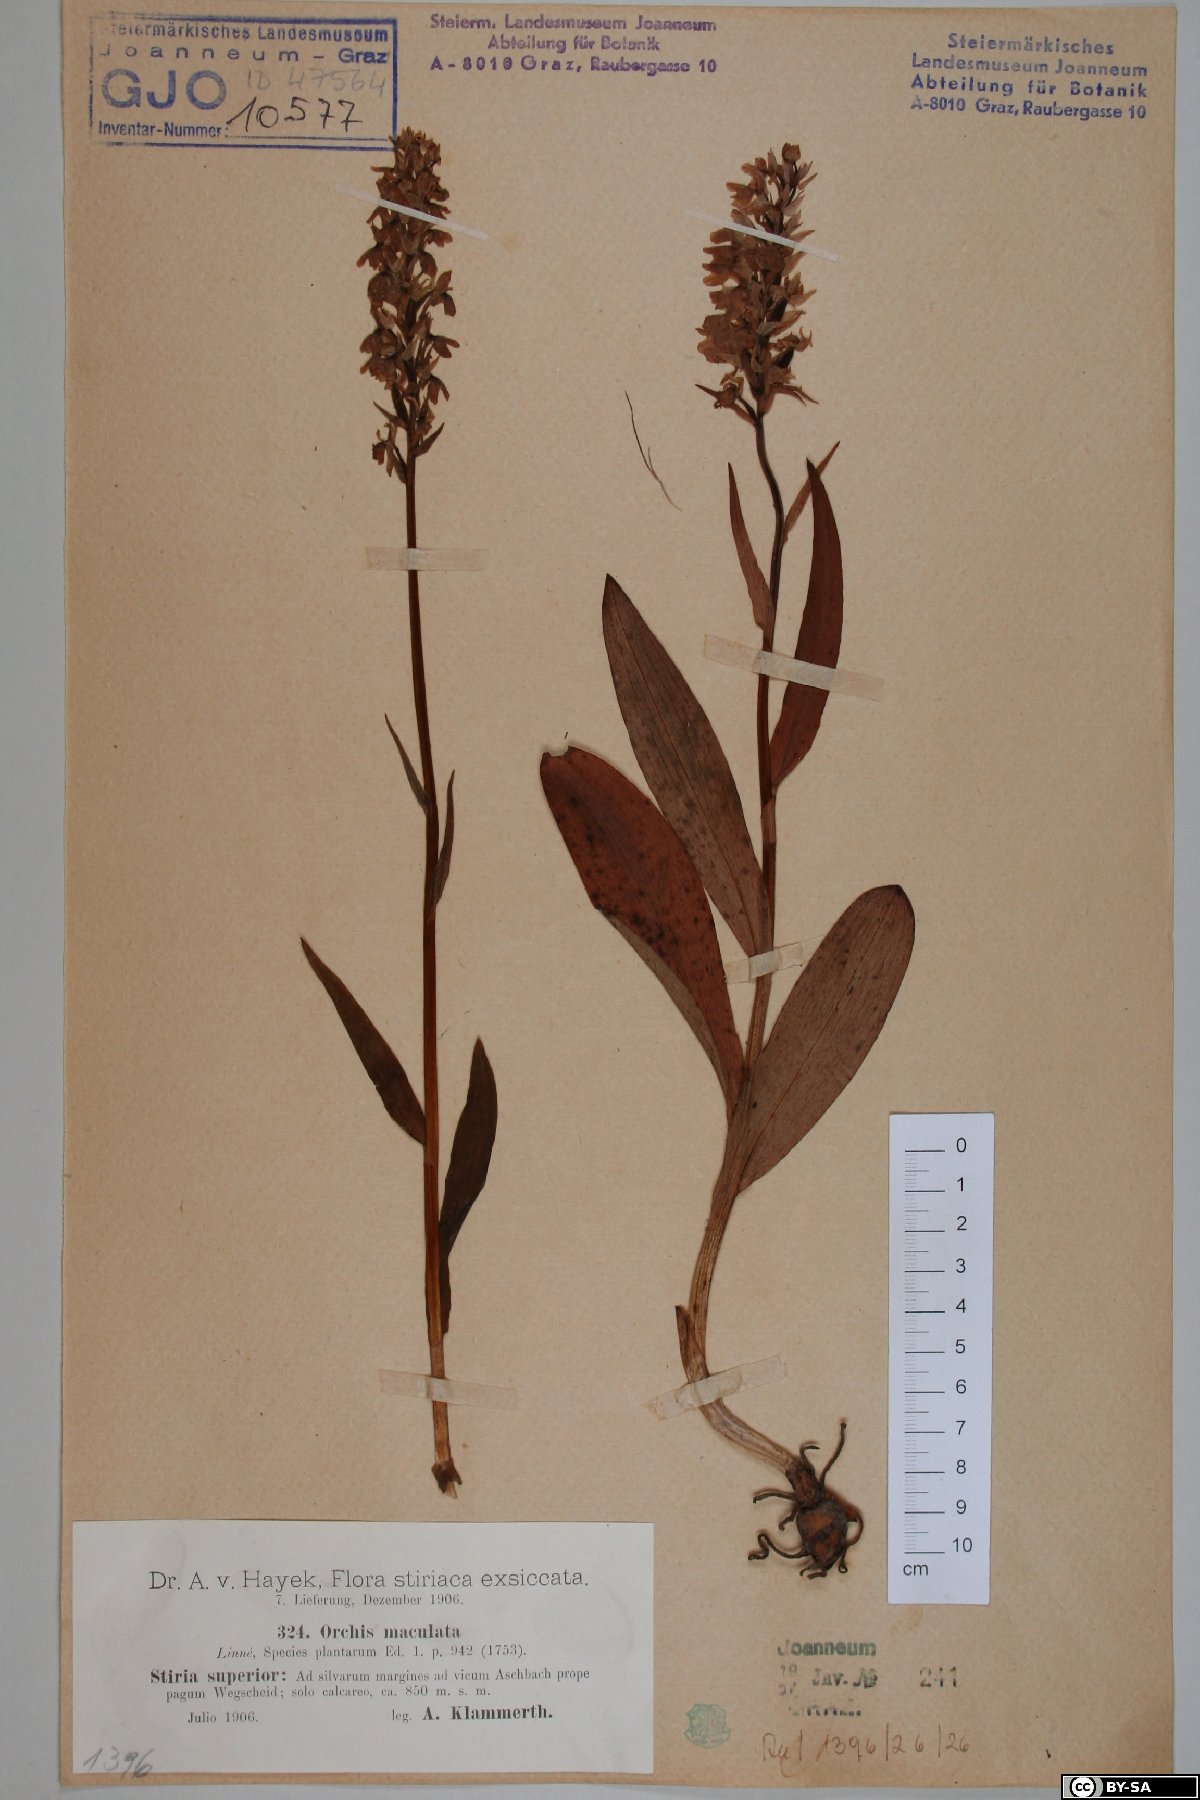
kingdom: Plantae
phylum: Tracheophyta
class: Liliopsida
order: Asparagales
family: Orchidaceae
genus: Dactylorhiza
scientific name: Dactylorhiza maculata
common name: Heath spotted-orchid
